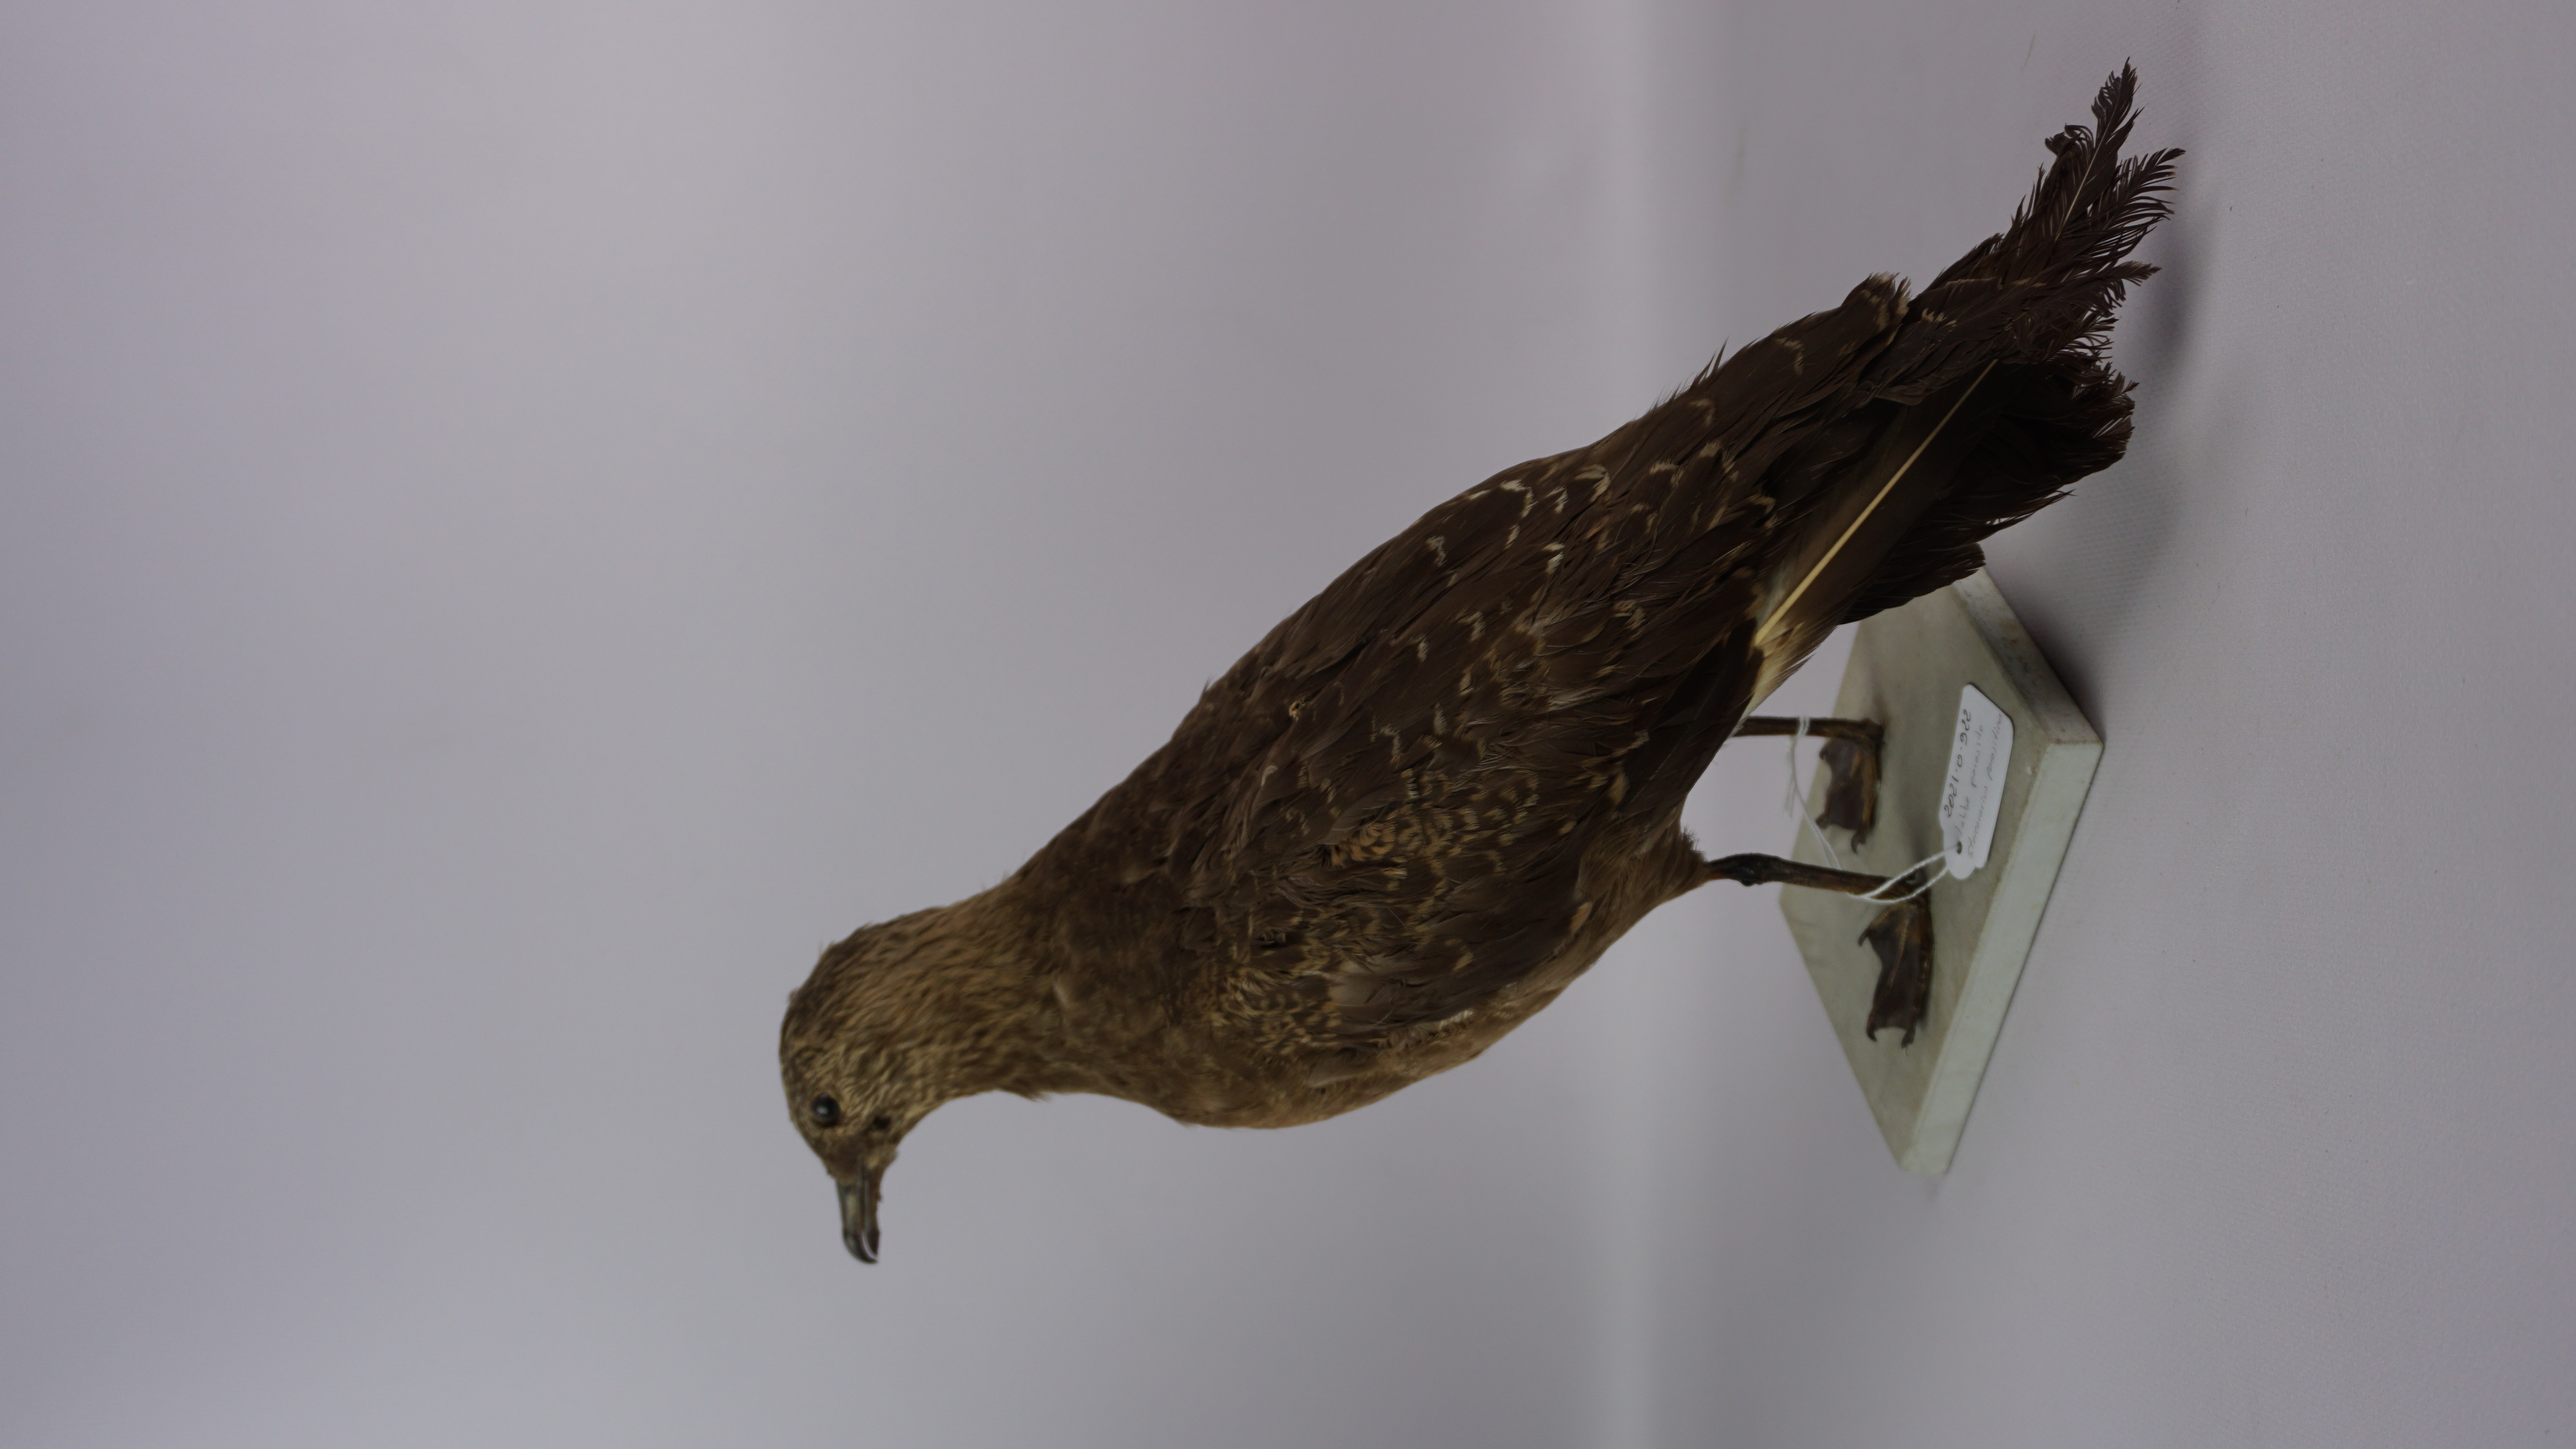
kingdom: Animalia
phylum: Chordata
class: Aves
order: Charadriiformes
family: Stercorariidae
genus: Stercorarius
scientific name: Stercorarius parasiticus
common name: Parasitic jaeger
